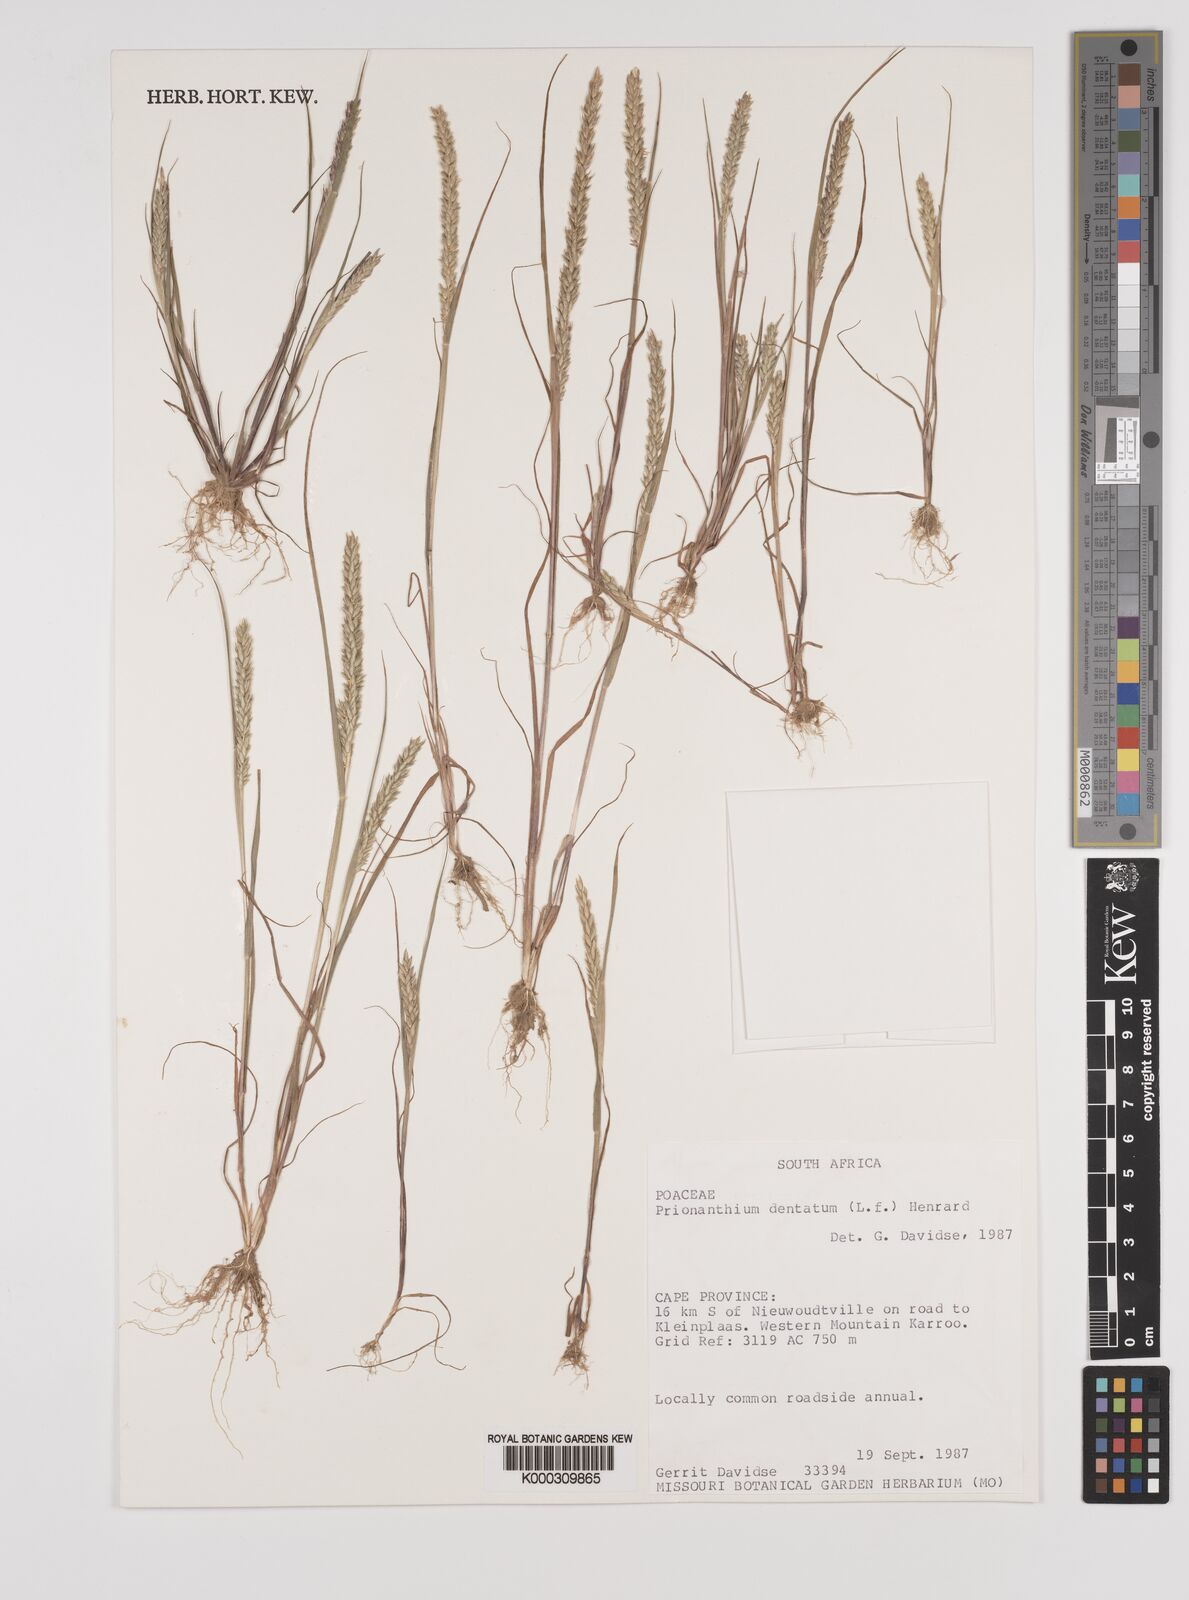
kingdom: Plantae
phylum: Tracheophyta
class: Liliopsida
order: Poales
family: Poaceae
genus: Pentameris
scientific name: Pentameris dentata
